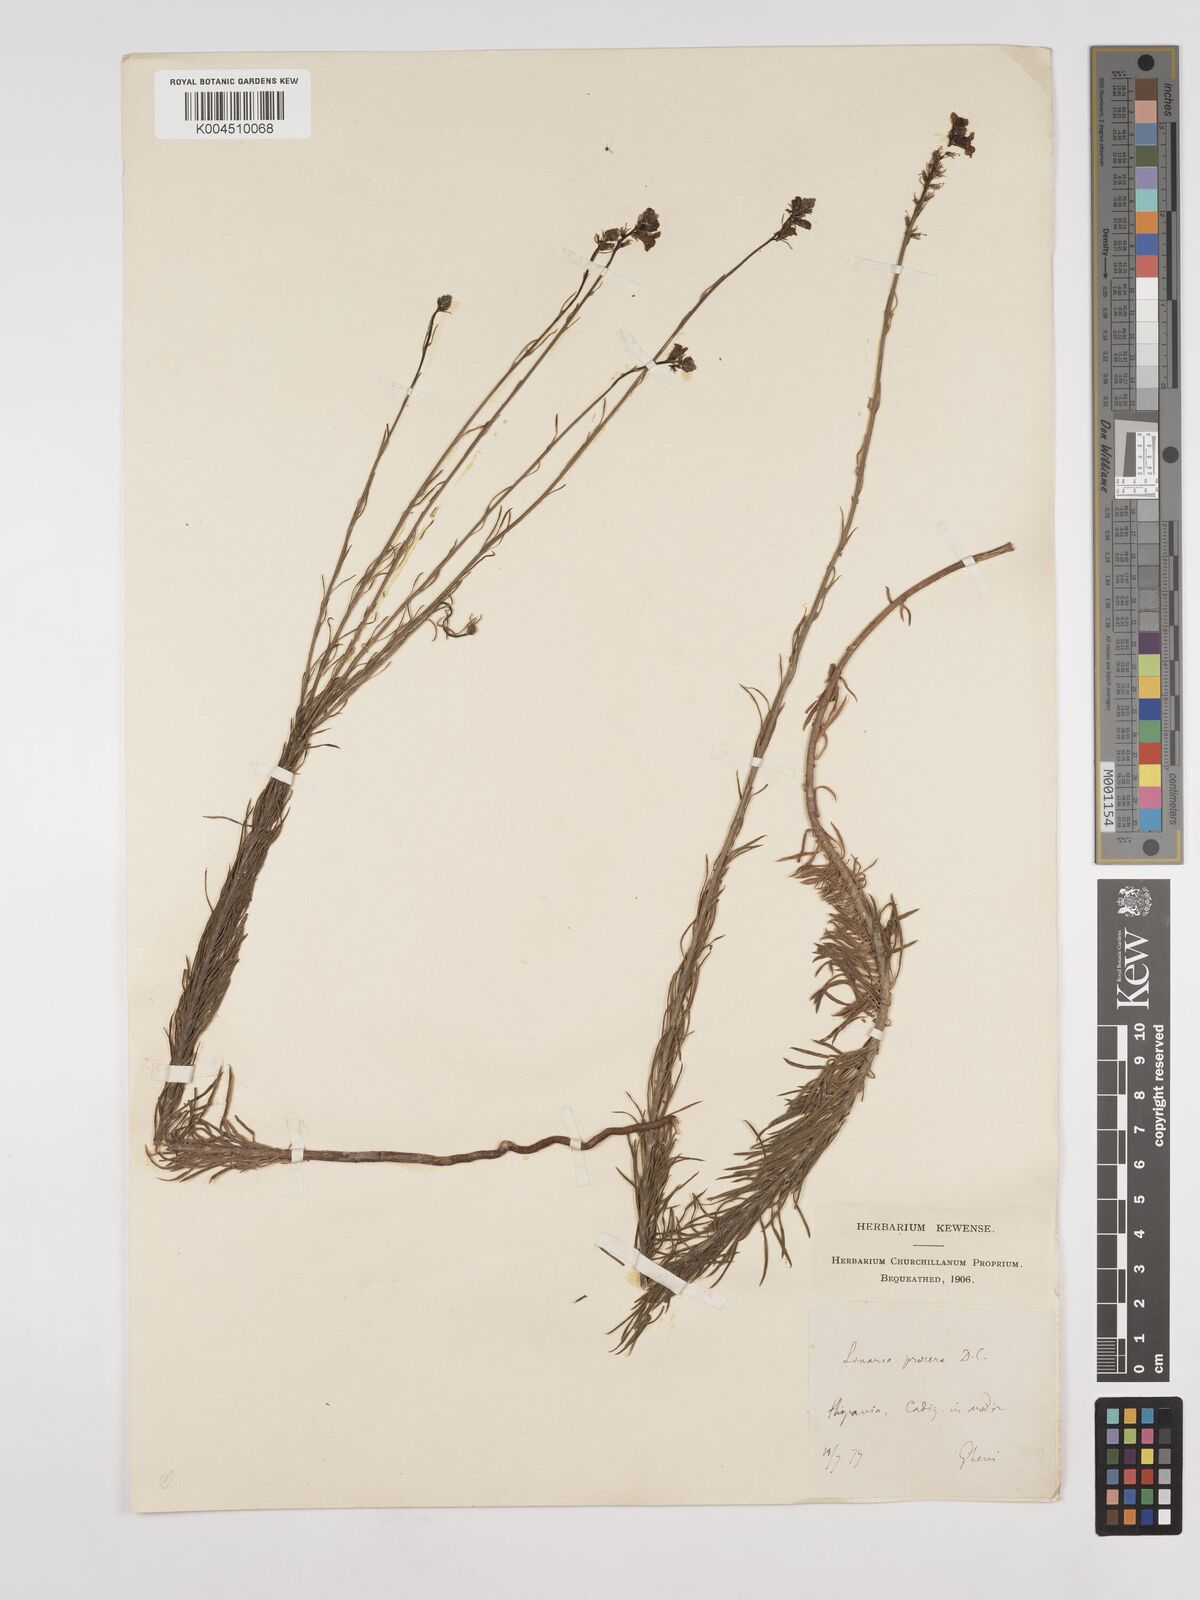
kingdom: Plantae
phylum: Tracheophyta
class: Magnoliopsida
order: Lamiales
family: Plantaginaceae
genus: Linaria
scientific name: Linaria
